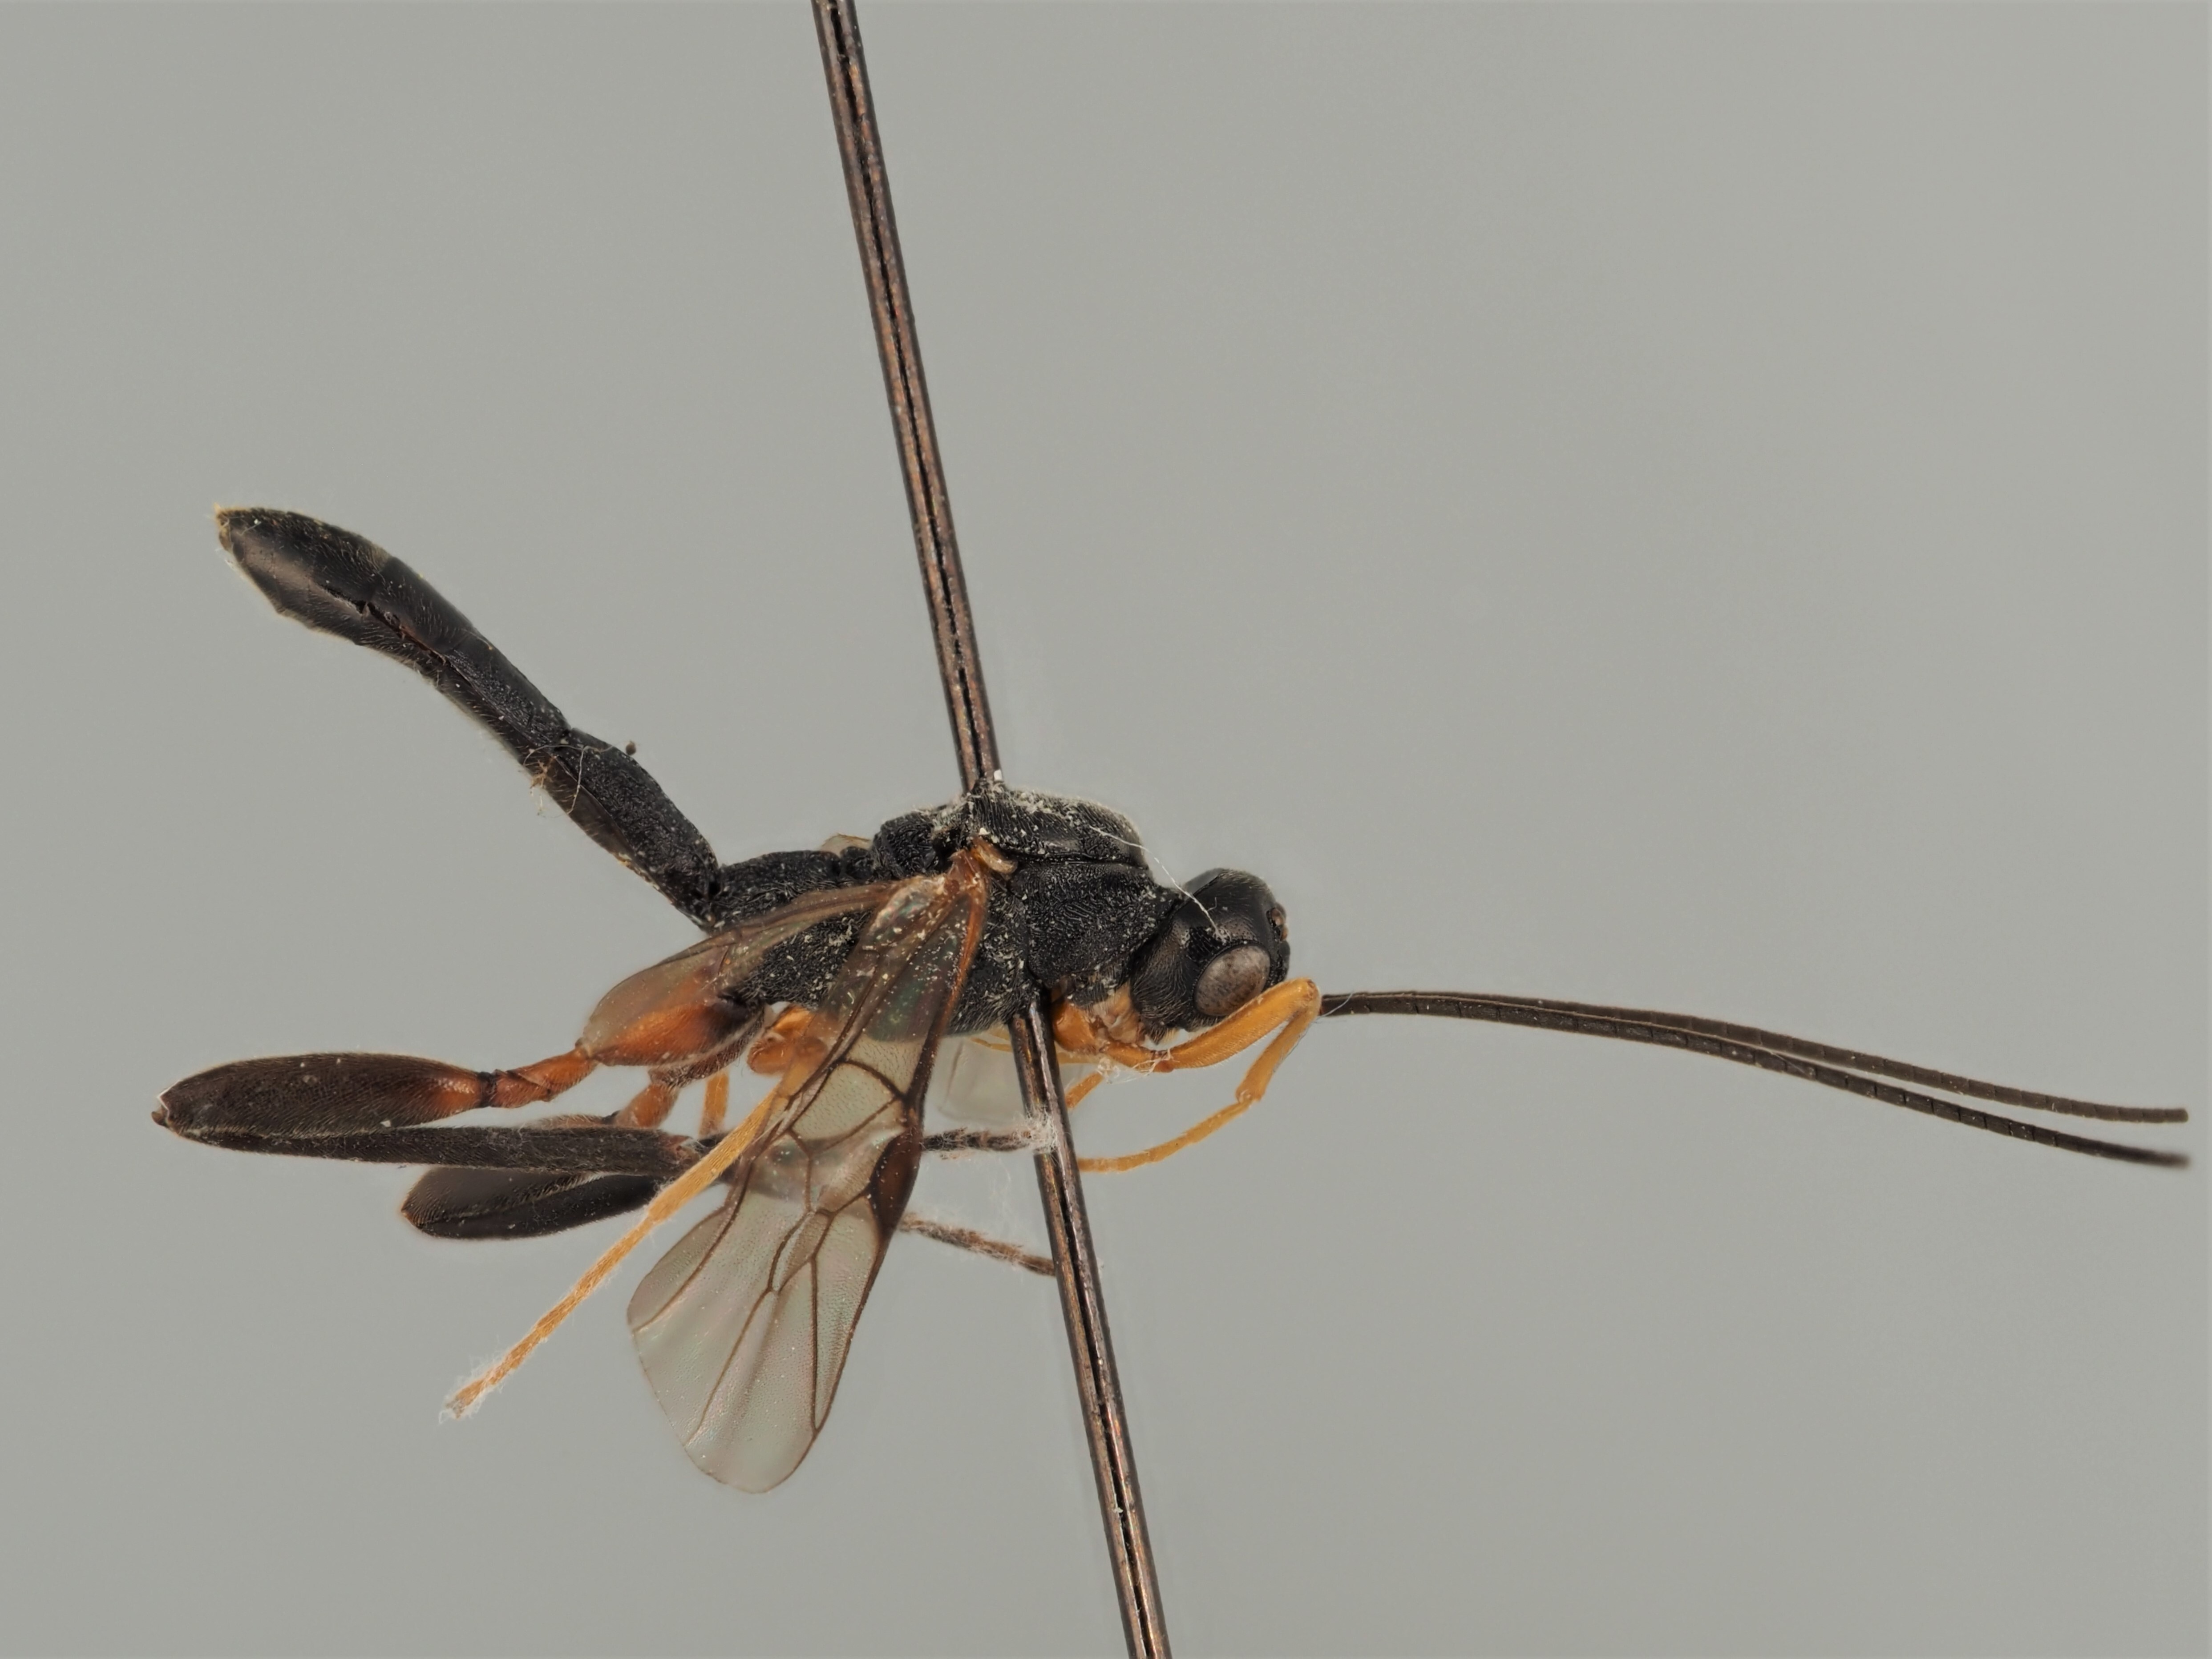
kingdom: Animalia
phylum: Arthropoda
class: Insecta
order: Hymenoptera
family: Braconidae
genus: Helcon
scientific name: Helcon angustator
